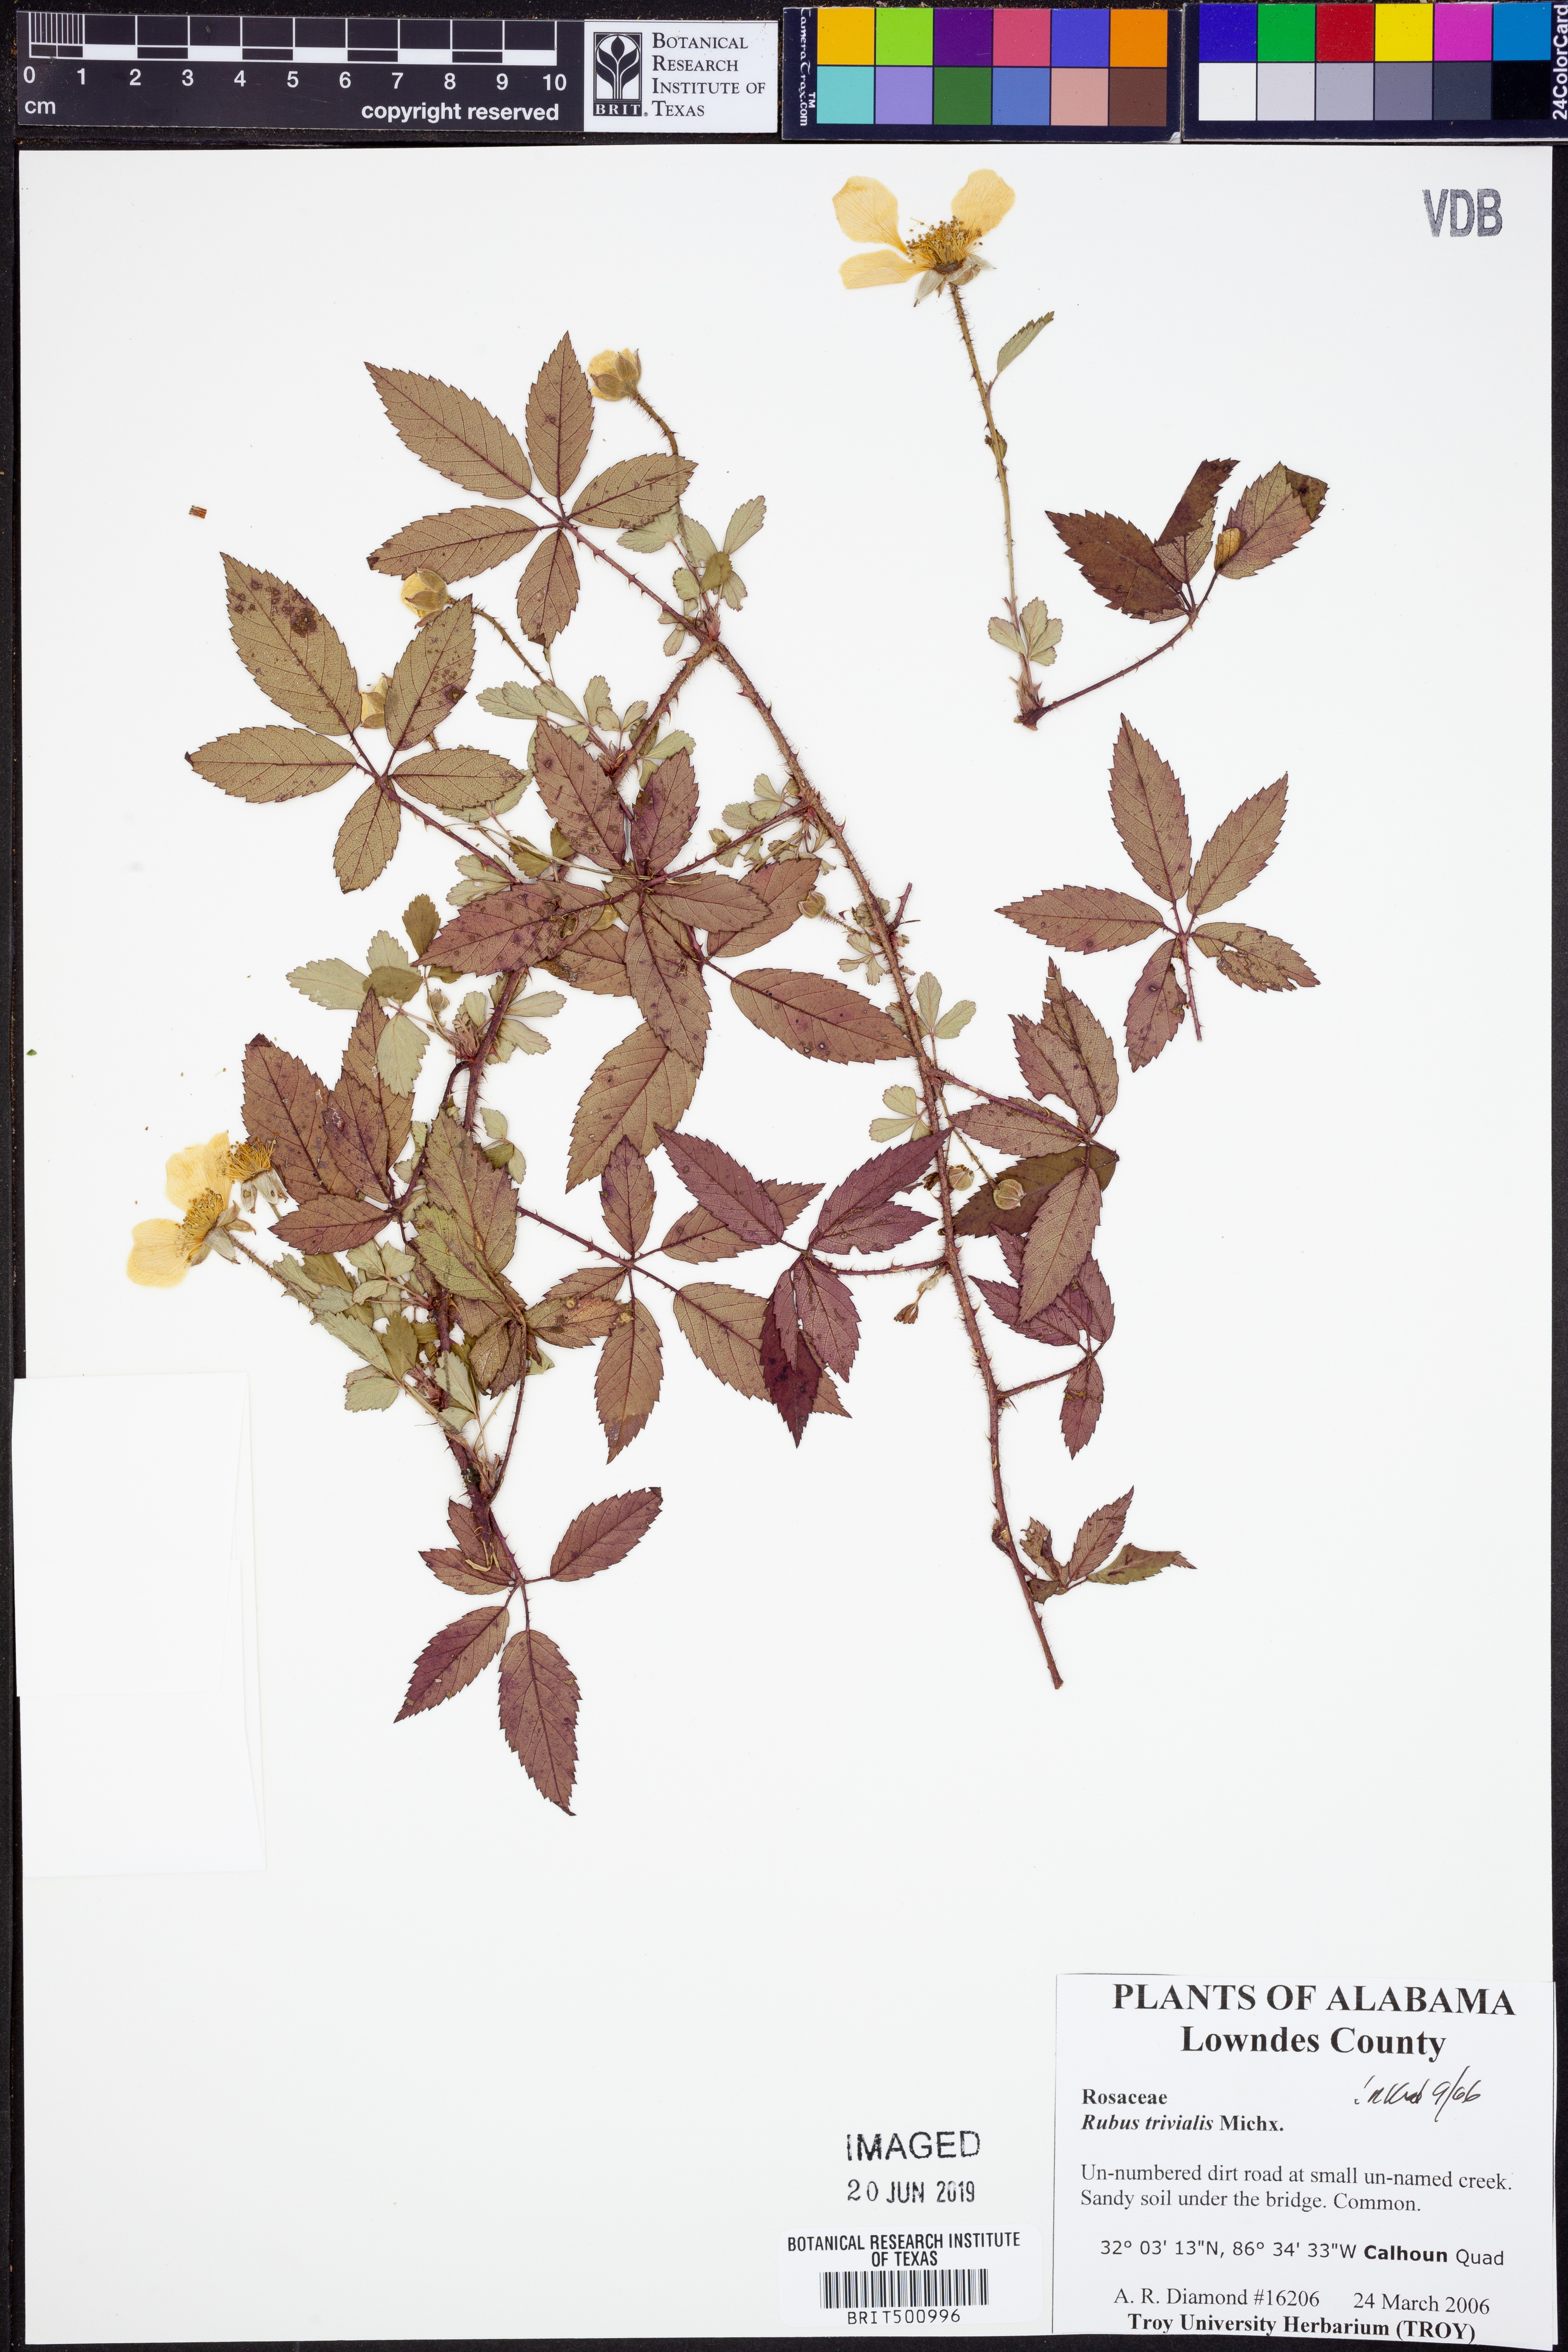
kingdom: Plantae
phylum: Tracheophyta
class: Magnoliopsida
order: Rosales
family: Rosaceae
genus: Rubus
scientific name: Rubus trivialis
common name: Southern dewberry
